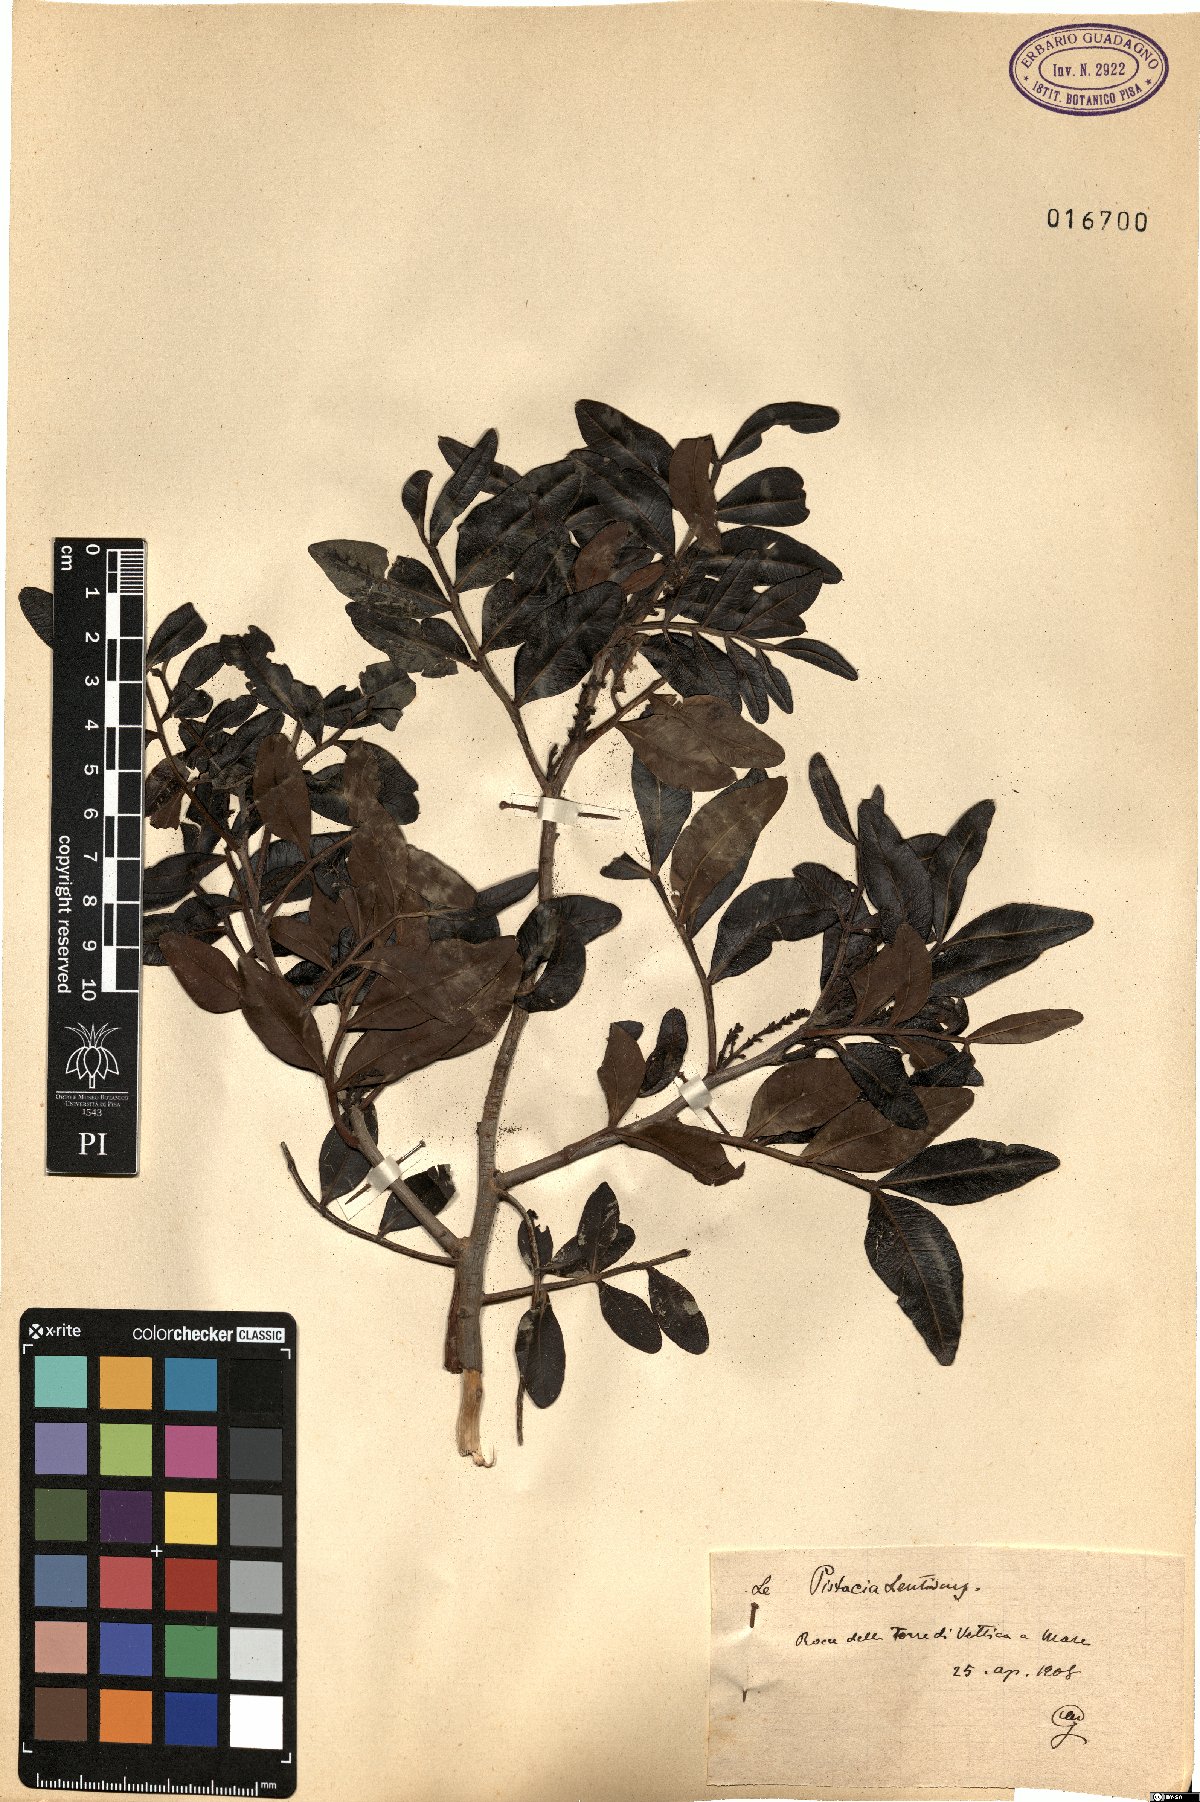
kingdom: Plantae
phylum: Tracheophyta
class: Magnoliopsida
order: Sapindales
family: Anacardiaceae
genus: Pistacia
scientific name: Pistacia lentiscus
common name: Lentisk
